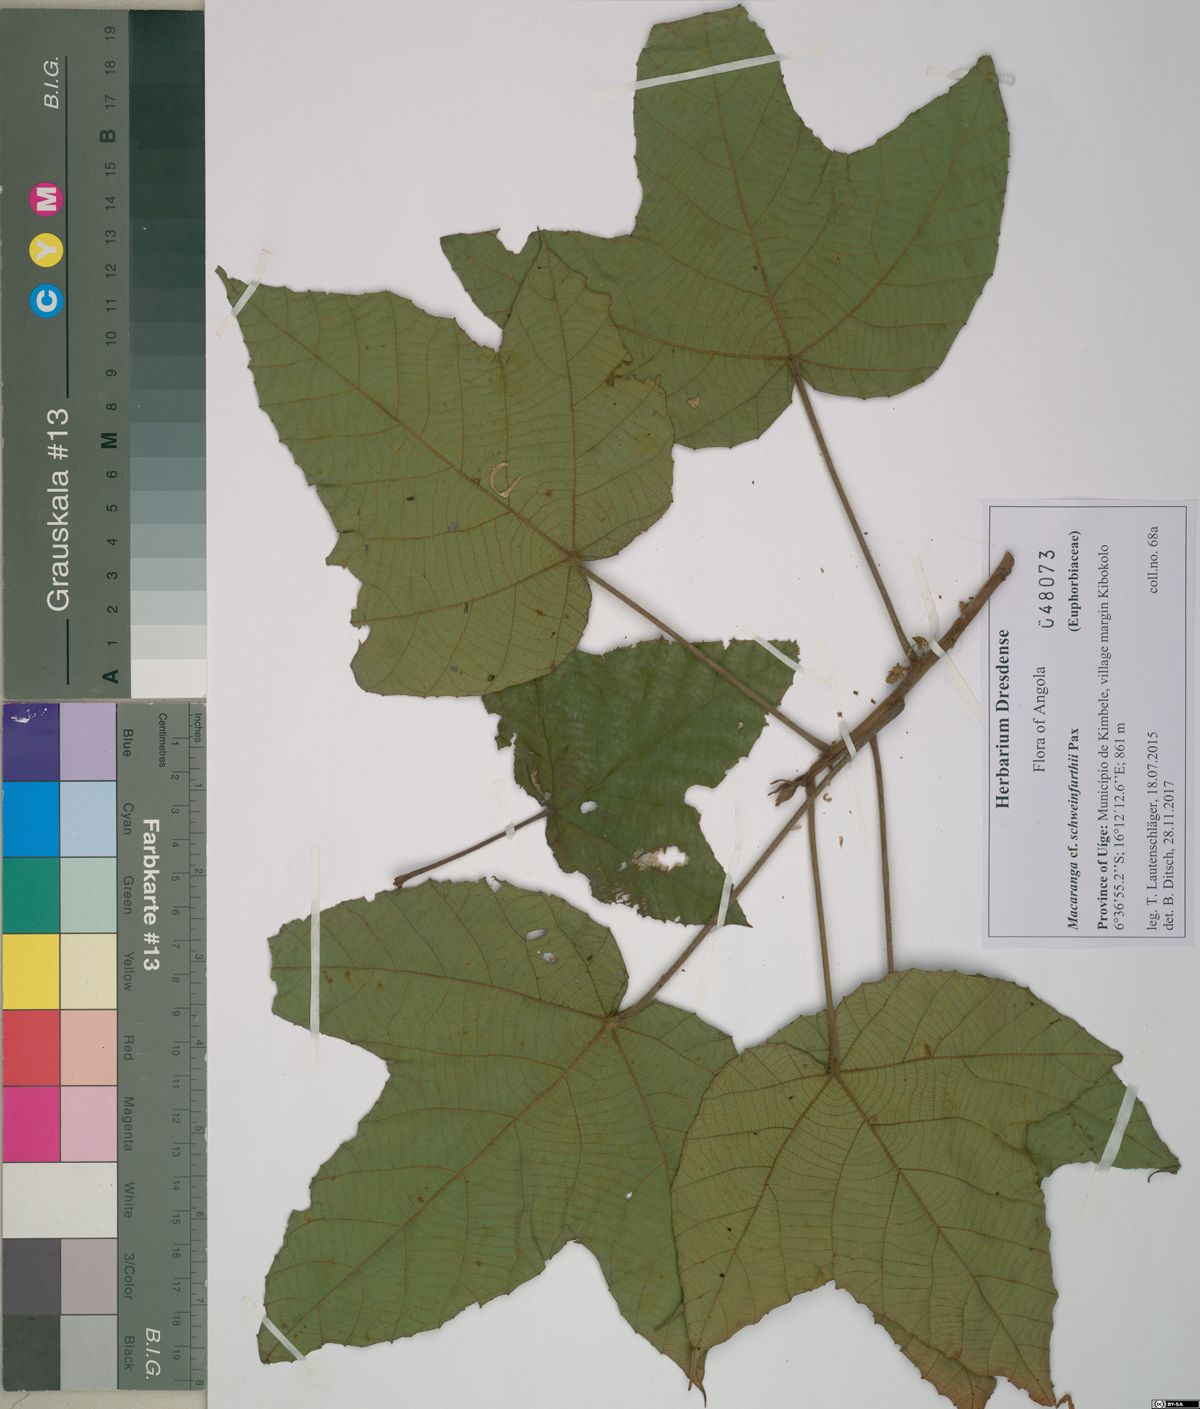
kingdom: Plantae
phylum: Tracheophyta
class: Magnoliopsida
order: Malpighiales
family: Euphorbiaceae
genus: Macaranga
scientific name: Macaranga angolensis
